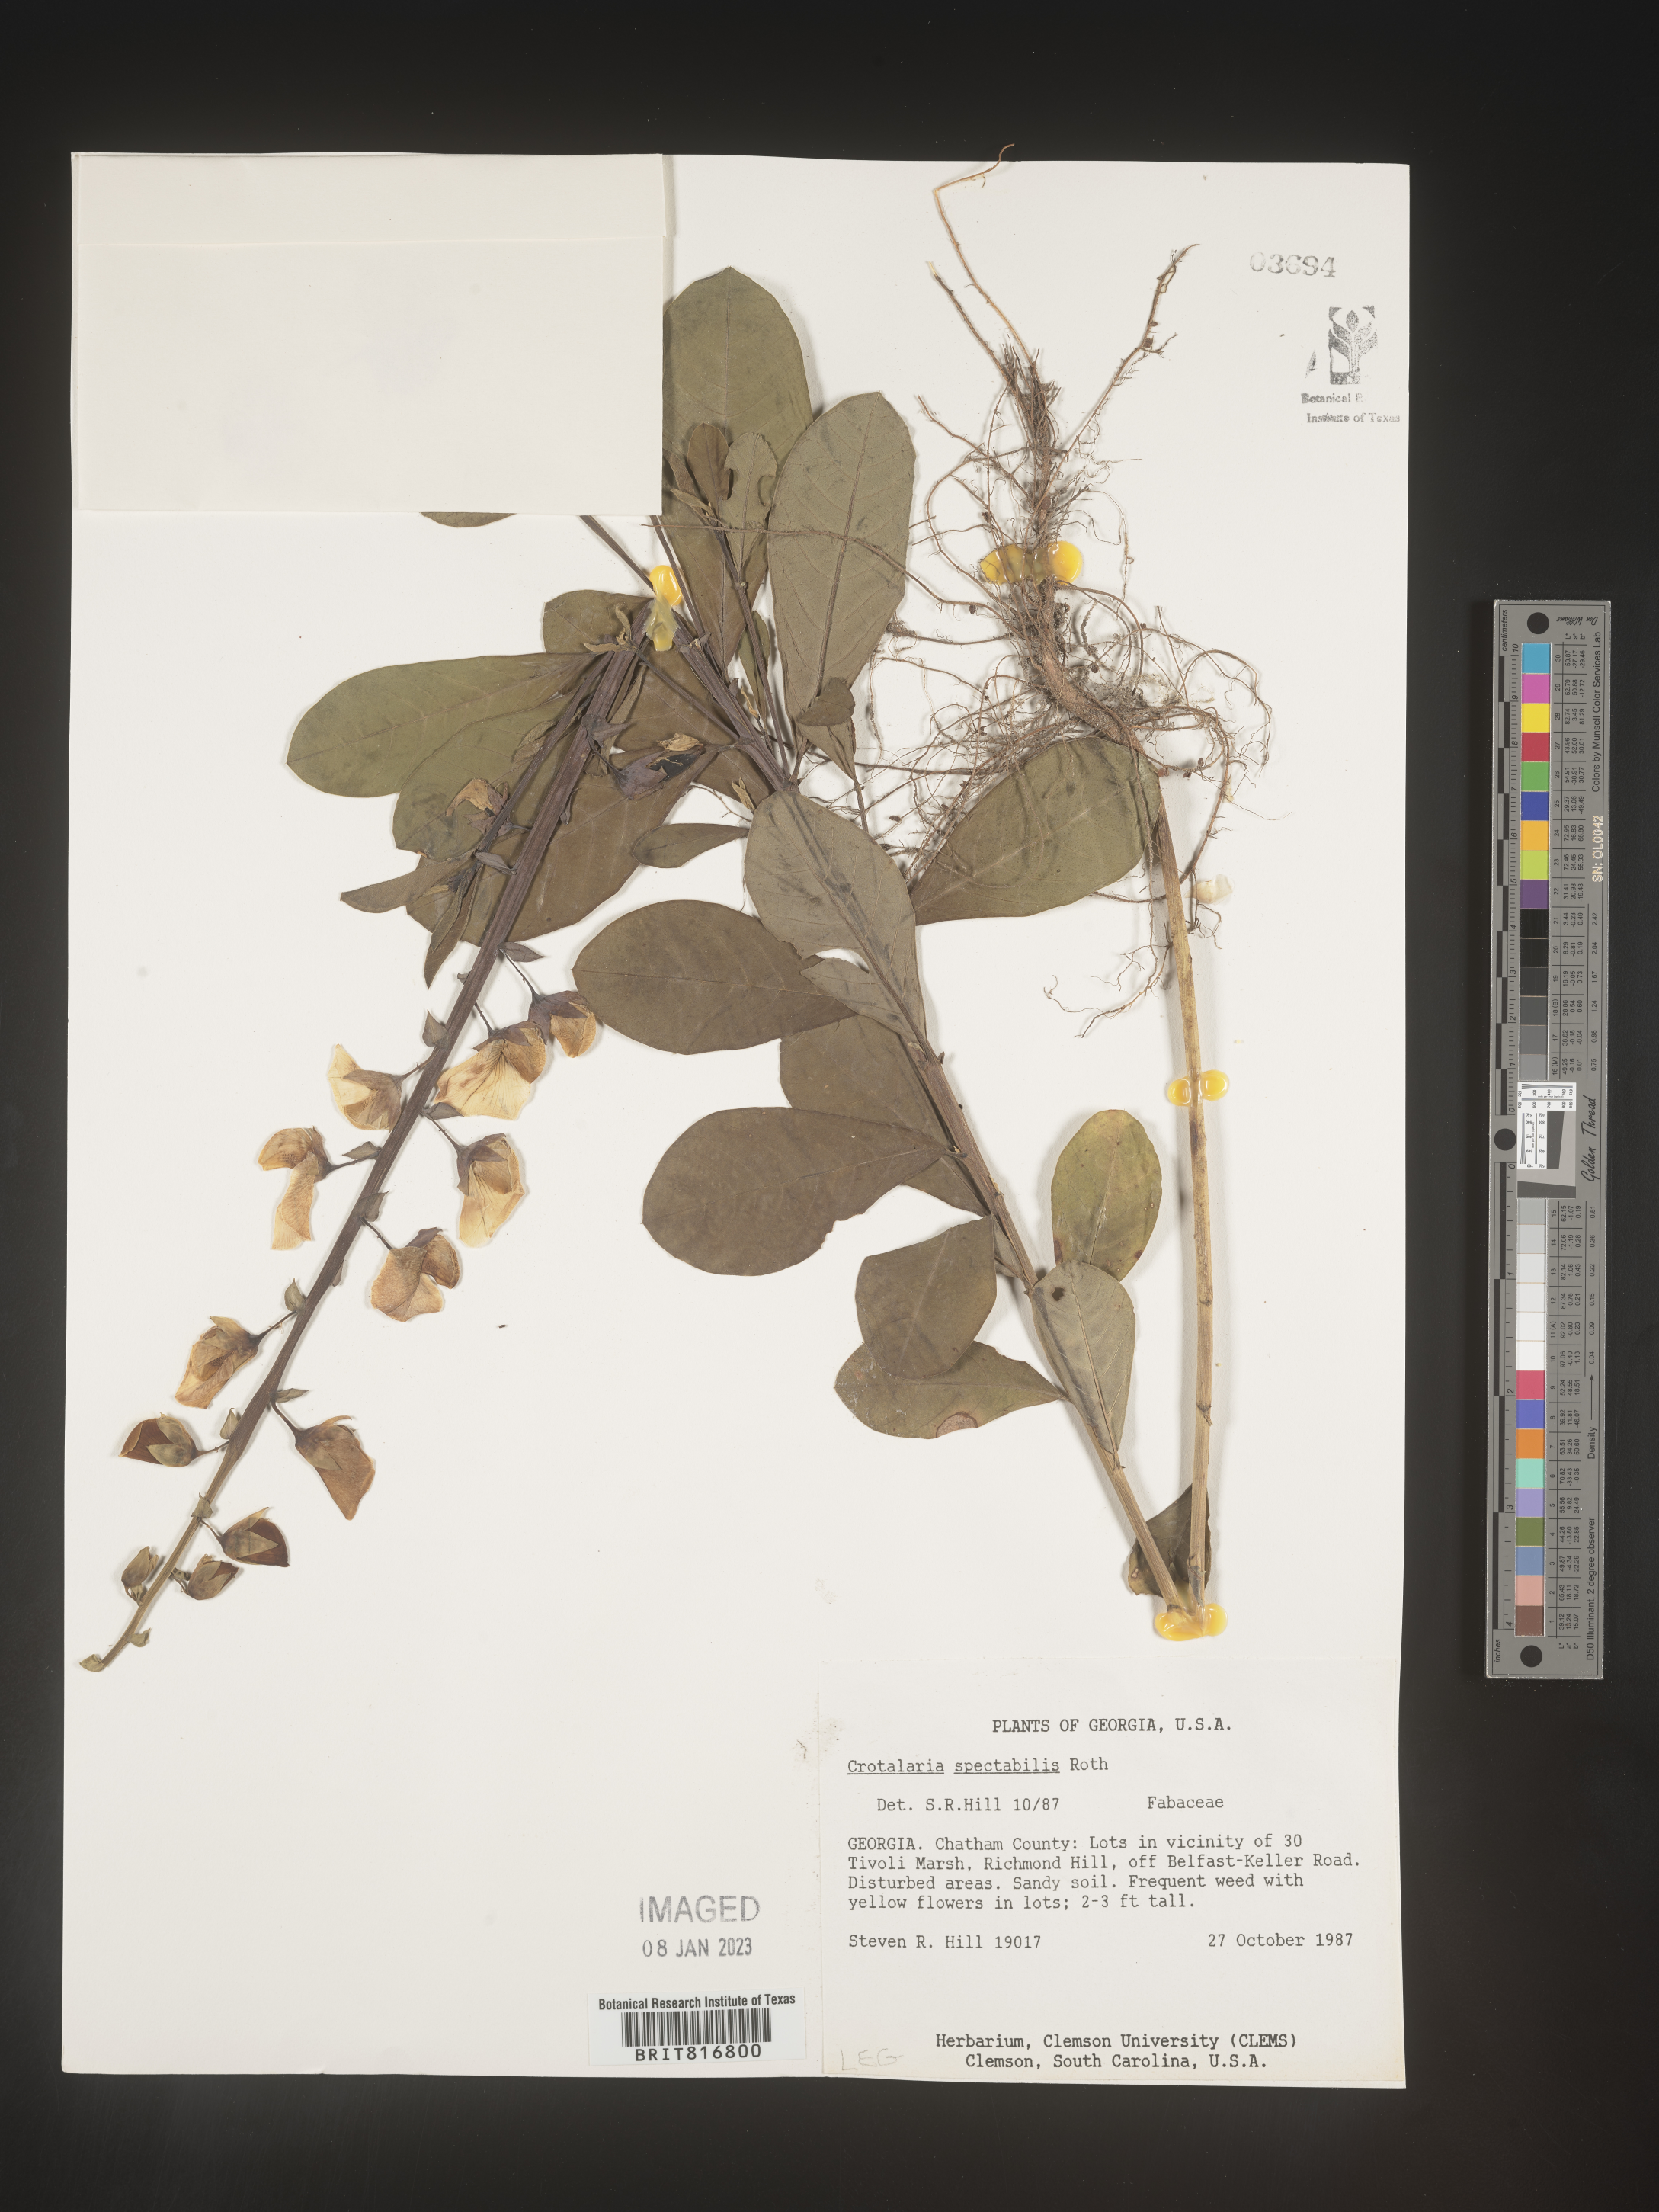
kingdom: Plantae
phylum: Tracheophyta
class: Magnoliopsida
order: Fabales
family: Fabaceae
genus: Crotalaria
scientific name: Crotalaria spectabilis
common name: Showy rattlebox
